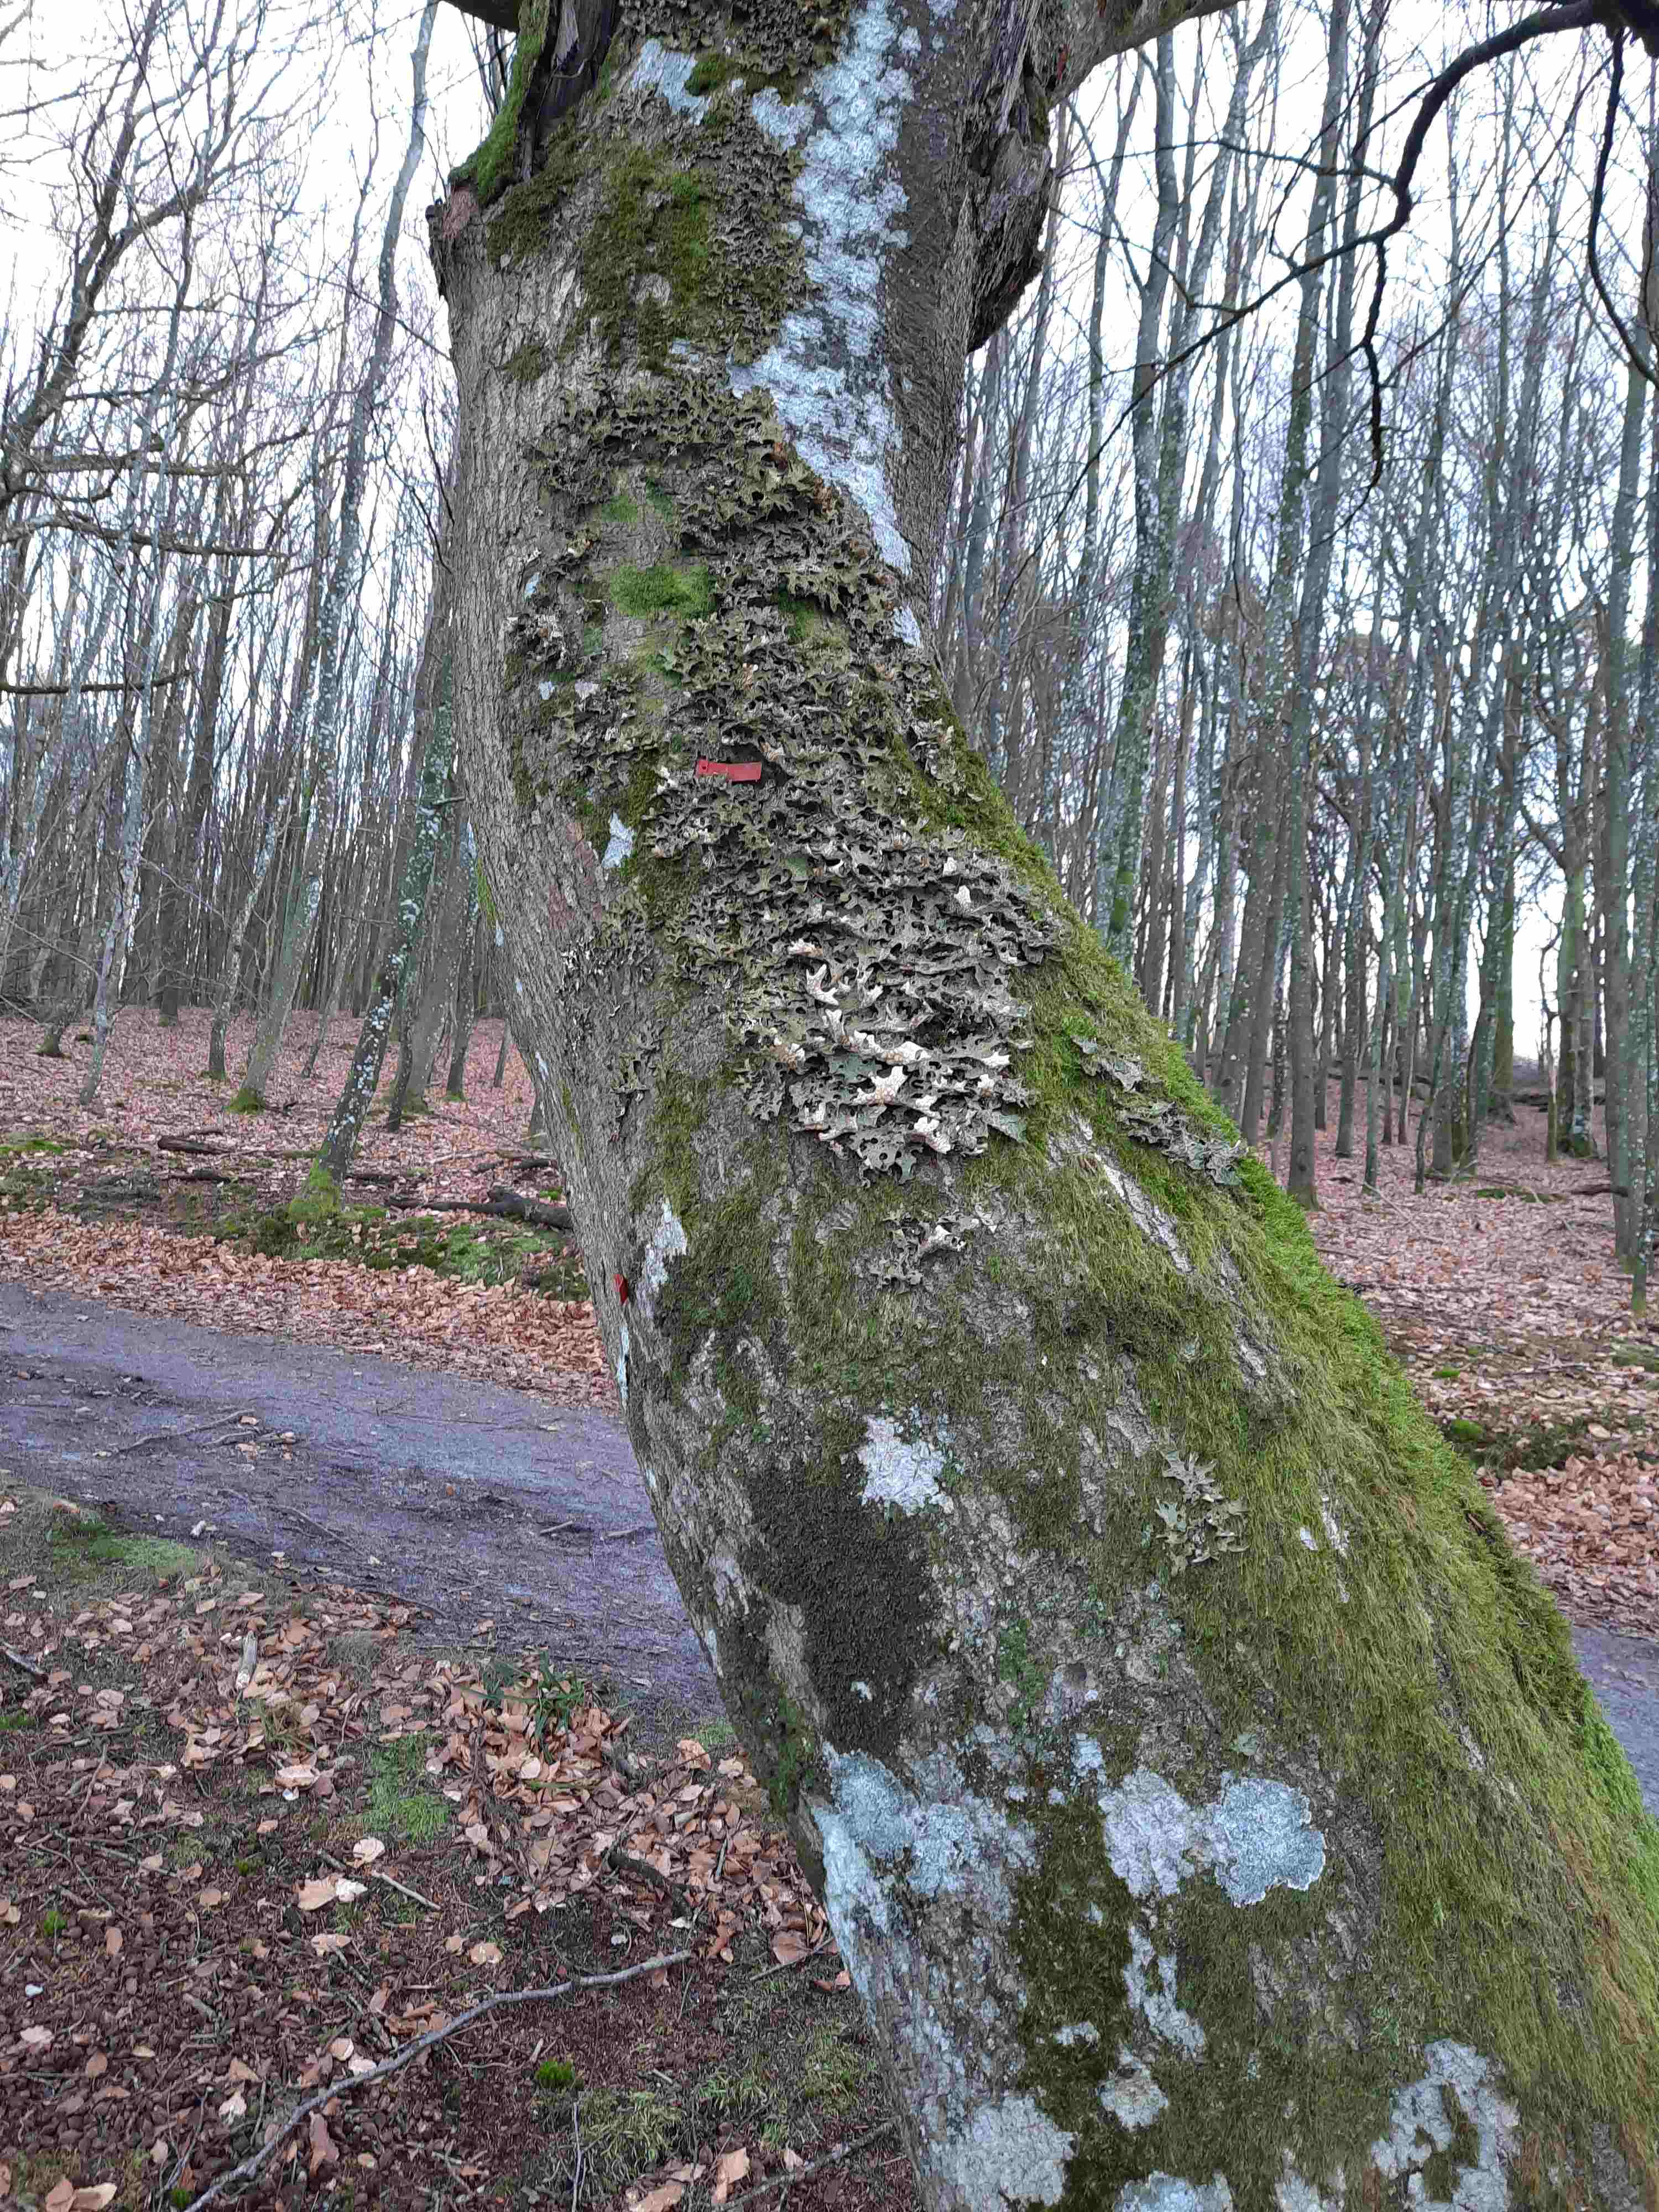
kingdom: Fungi
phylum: Ascomycota
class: Lecanoromycetes
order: Peltigerales
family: Lobariaceae
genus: Lobaria
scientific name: Lobaria pulmonaria
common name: almindelig lungelav
